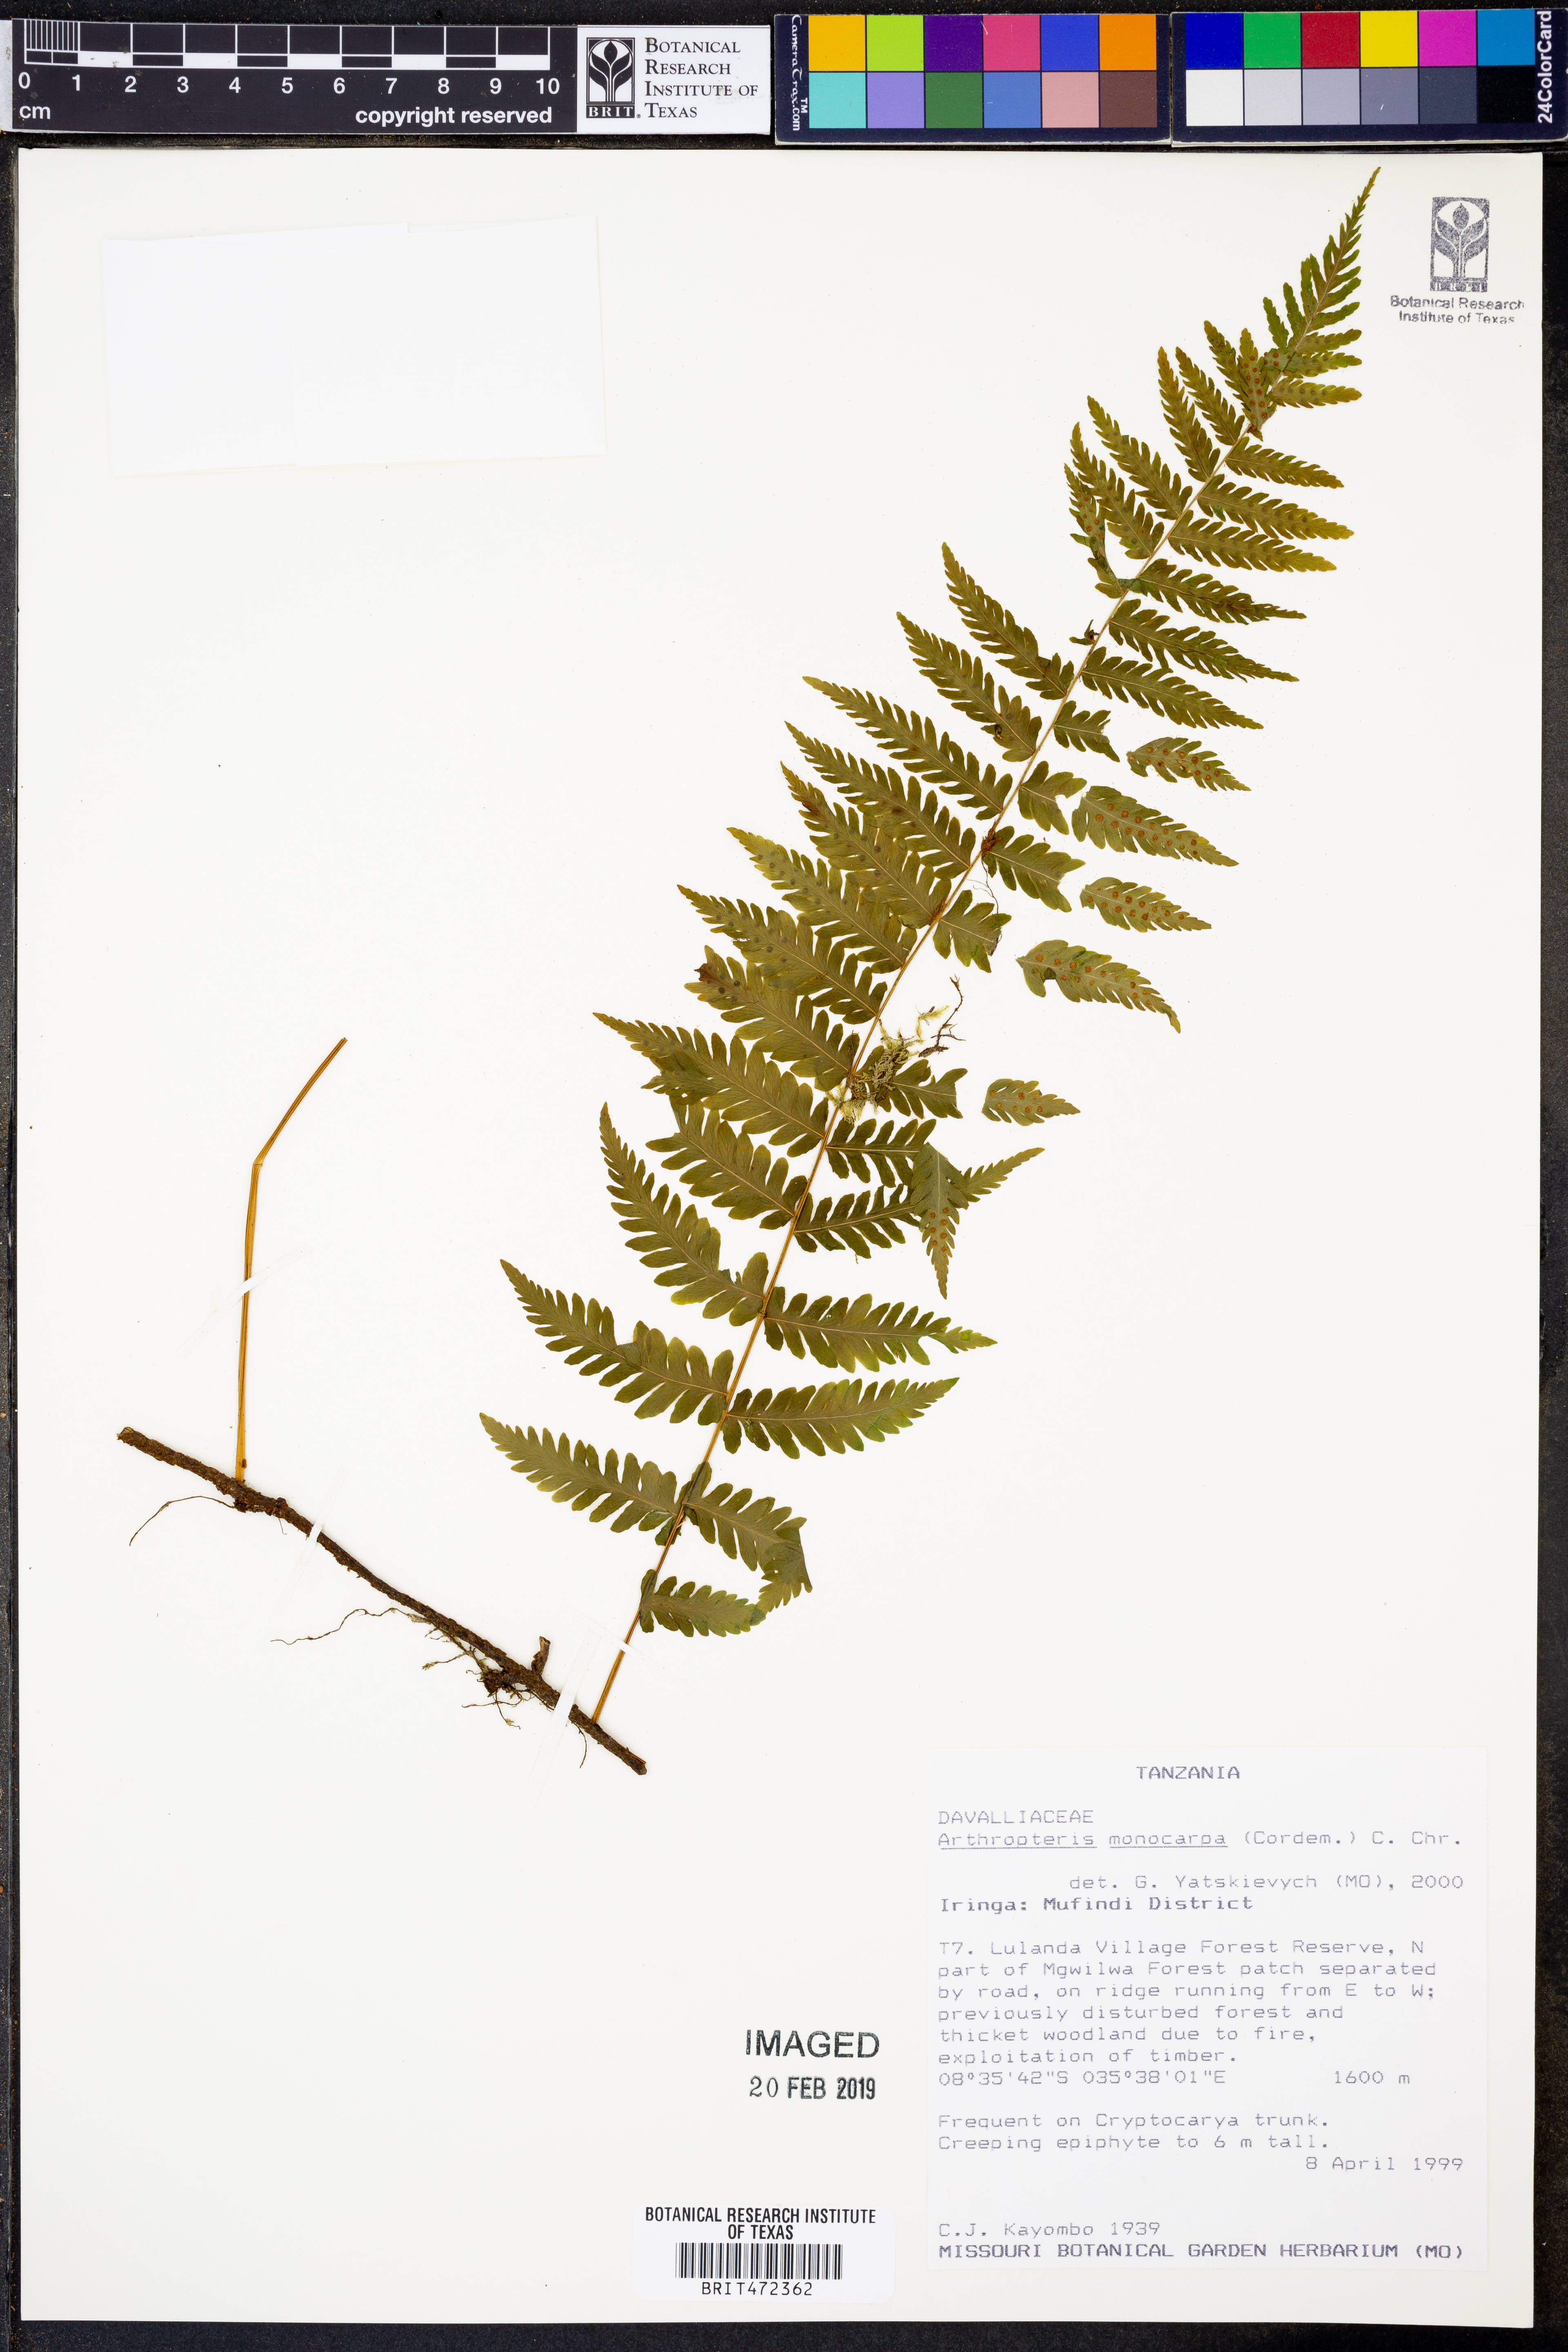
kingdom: Plantae
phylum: Tracheophyta
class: Polypodiopsida
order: Polypodiales
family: Tectariaceae
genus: Arthropteris
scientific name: Arthropteris monocarpa
